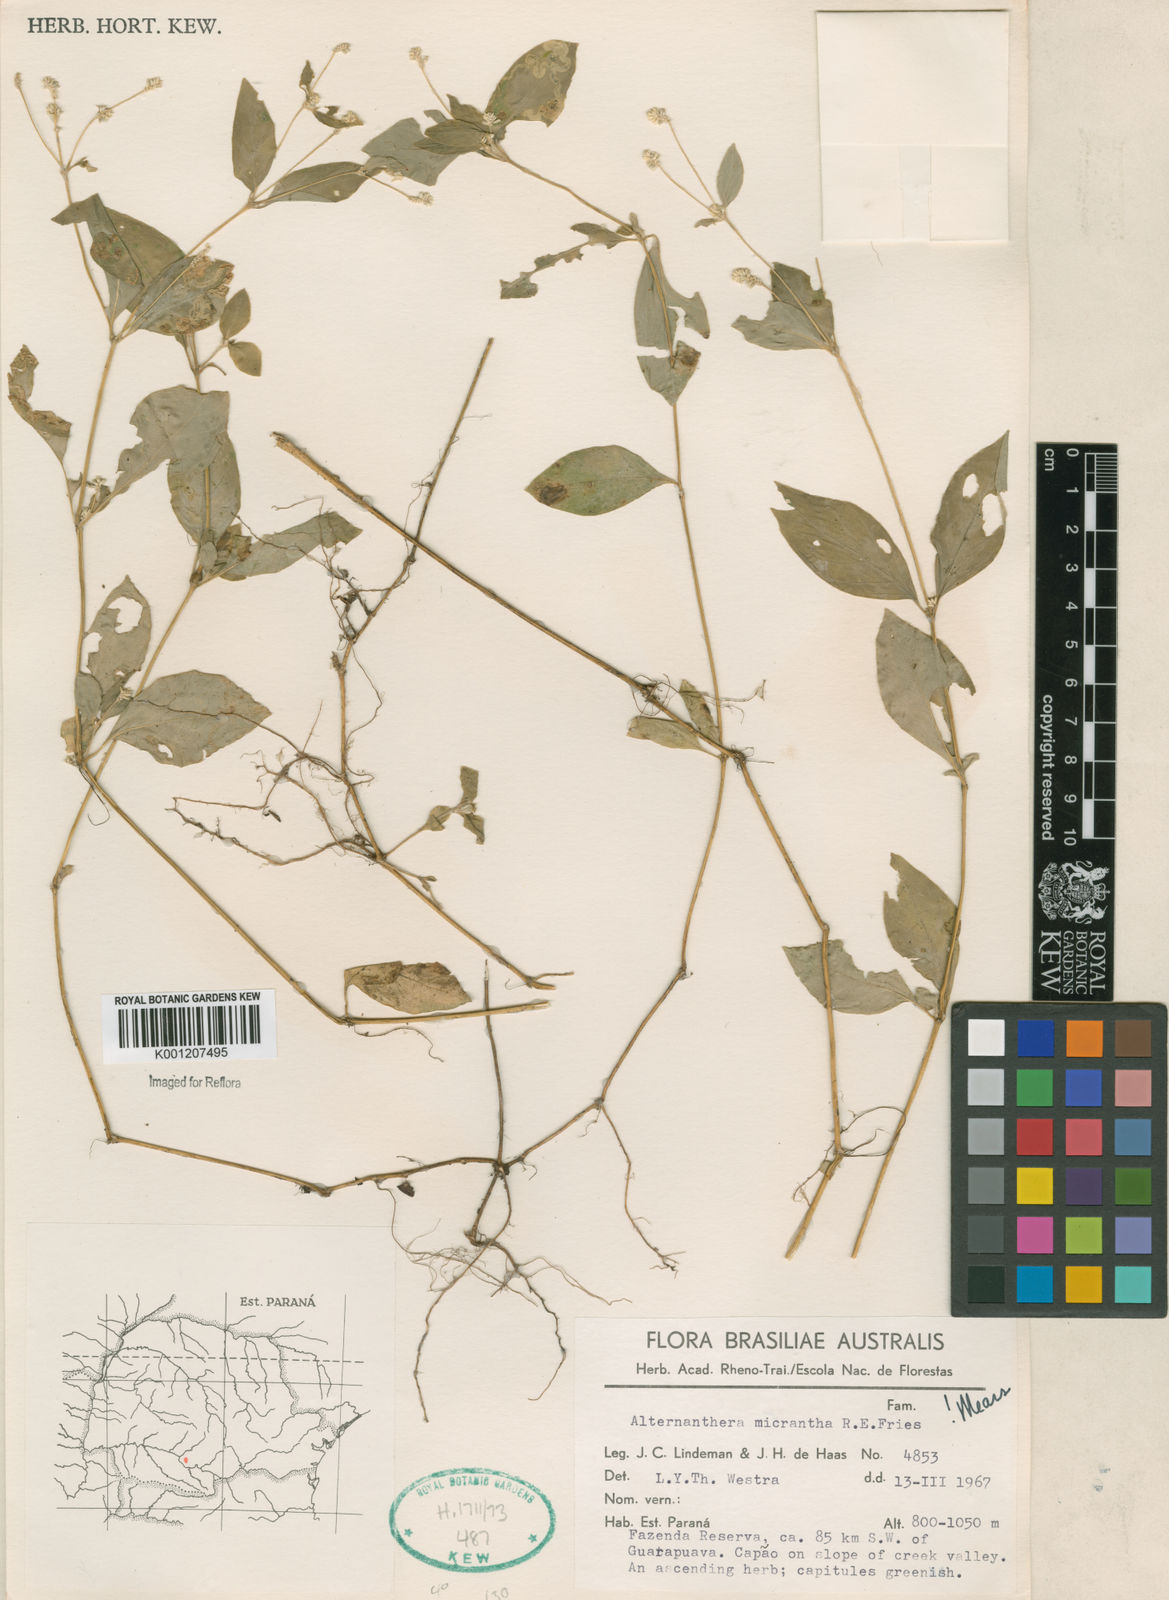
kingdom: Plantae
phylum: Tracheophyta
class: Magnoliopsida
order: Caryophyllales
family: Amaranthaceae
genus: Alternanthera
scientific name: Alternanthera micrantha
